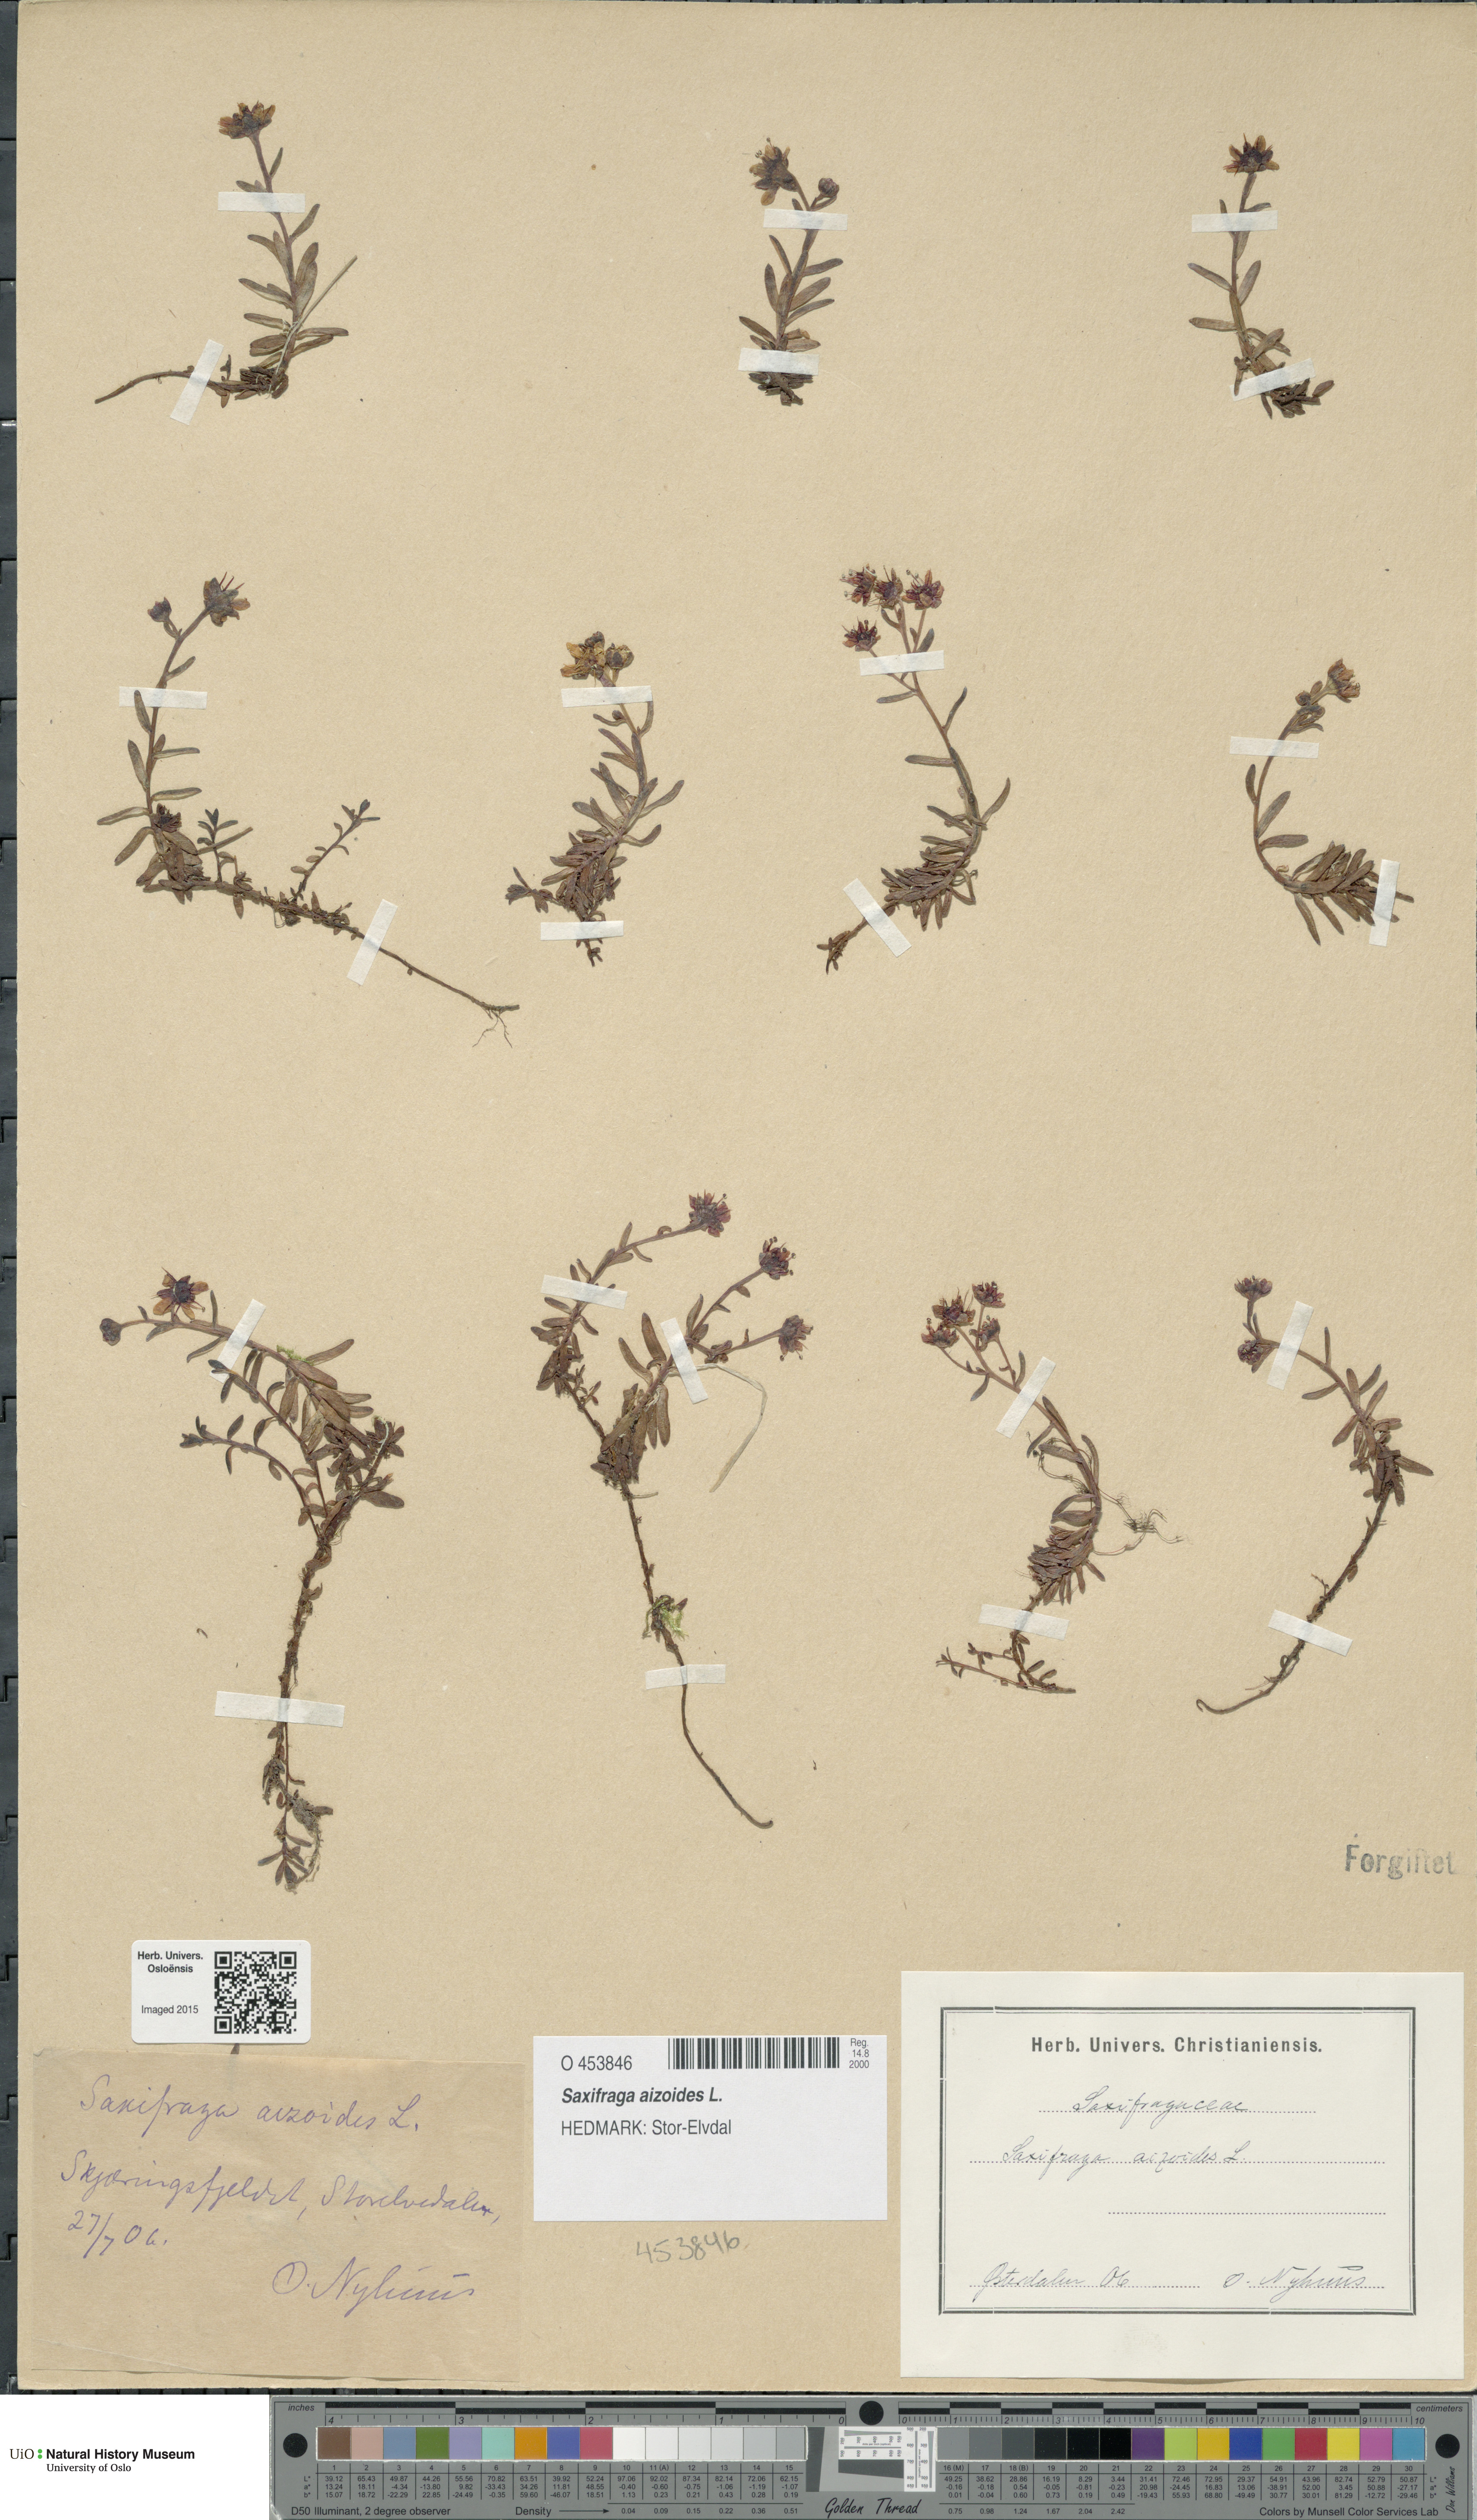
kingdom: Plantae
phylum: Tracheophyta
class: Magnoliopsida
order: Saxifragales
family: Saxifragaceae
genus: Saxifraga
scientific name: Saxifraga aizoides
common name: Yellow mountain saxifrage
